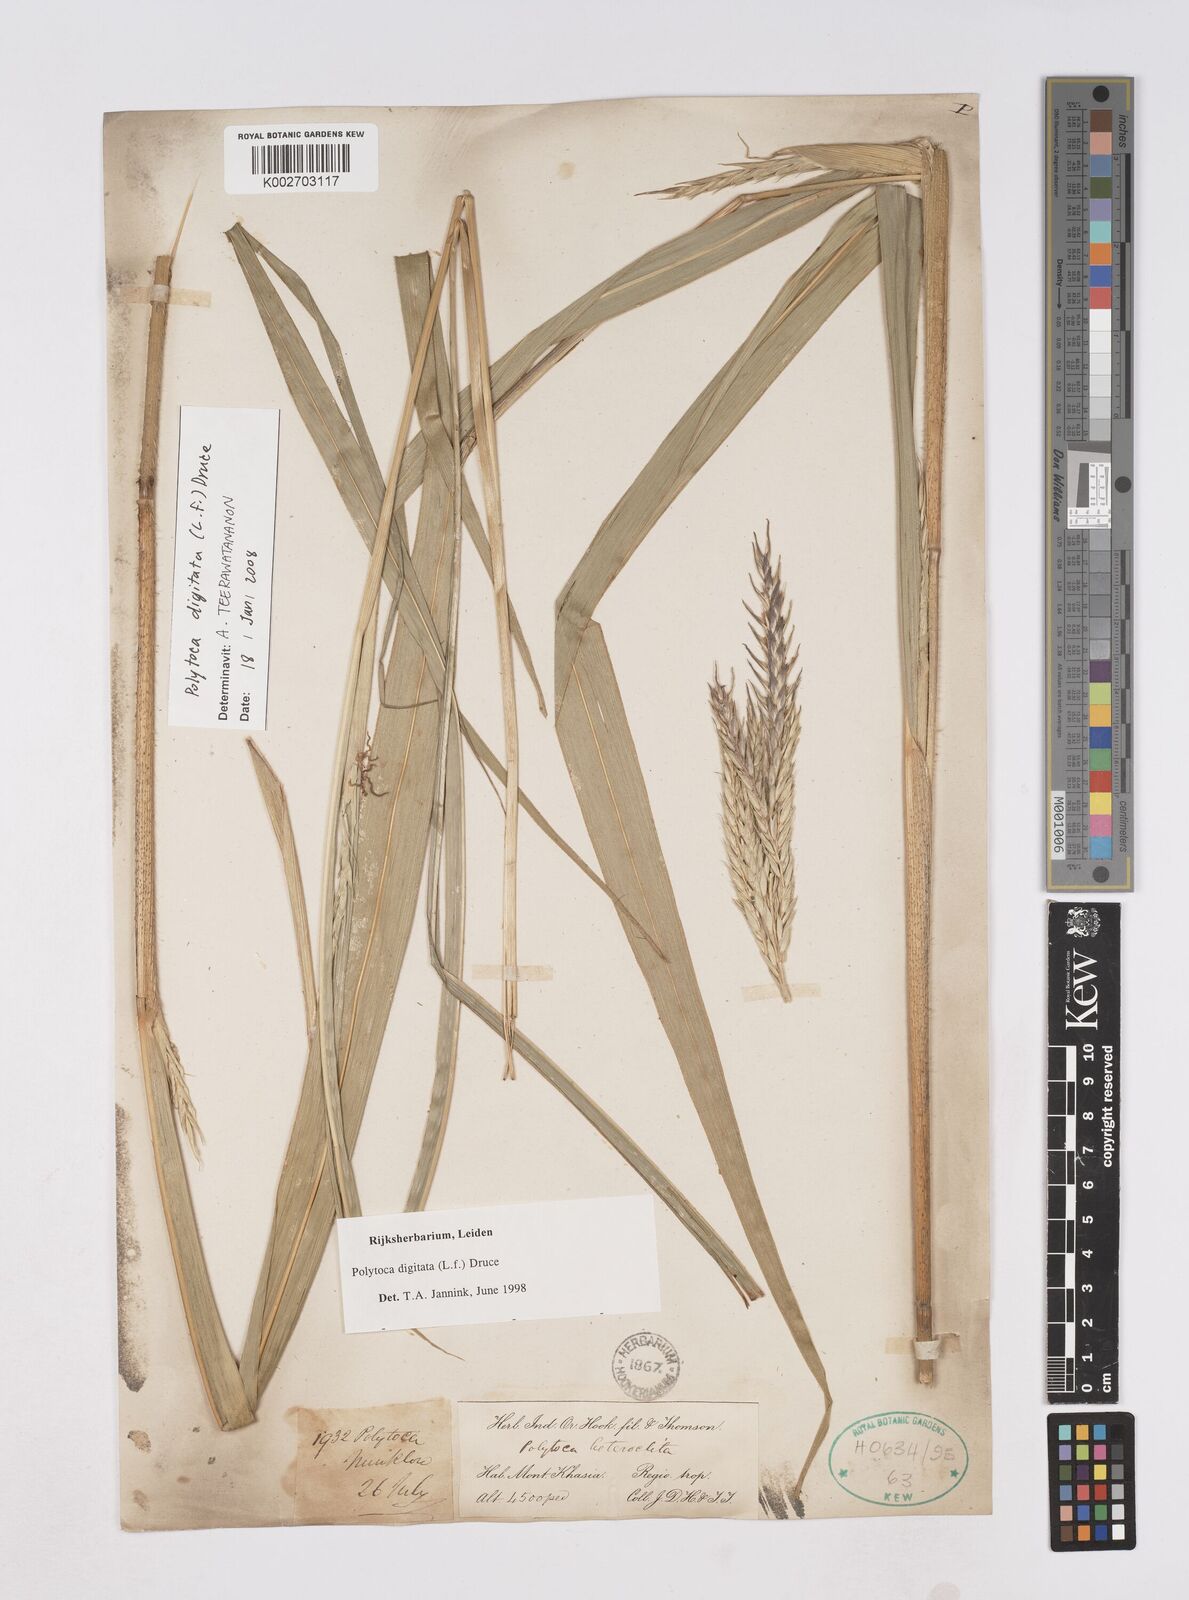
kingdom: Plantae
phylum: Tracheophyta
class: Liliopsida
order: Poales
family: Poaceae
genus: Polytoca
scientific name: Polytoca digitata
